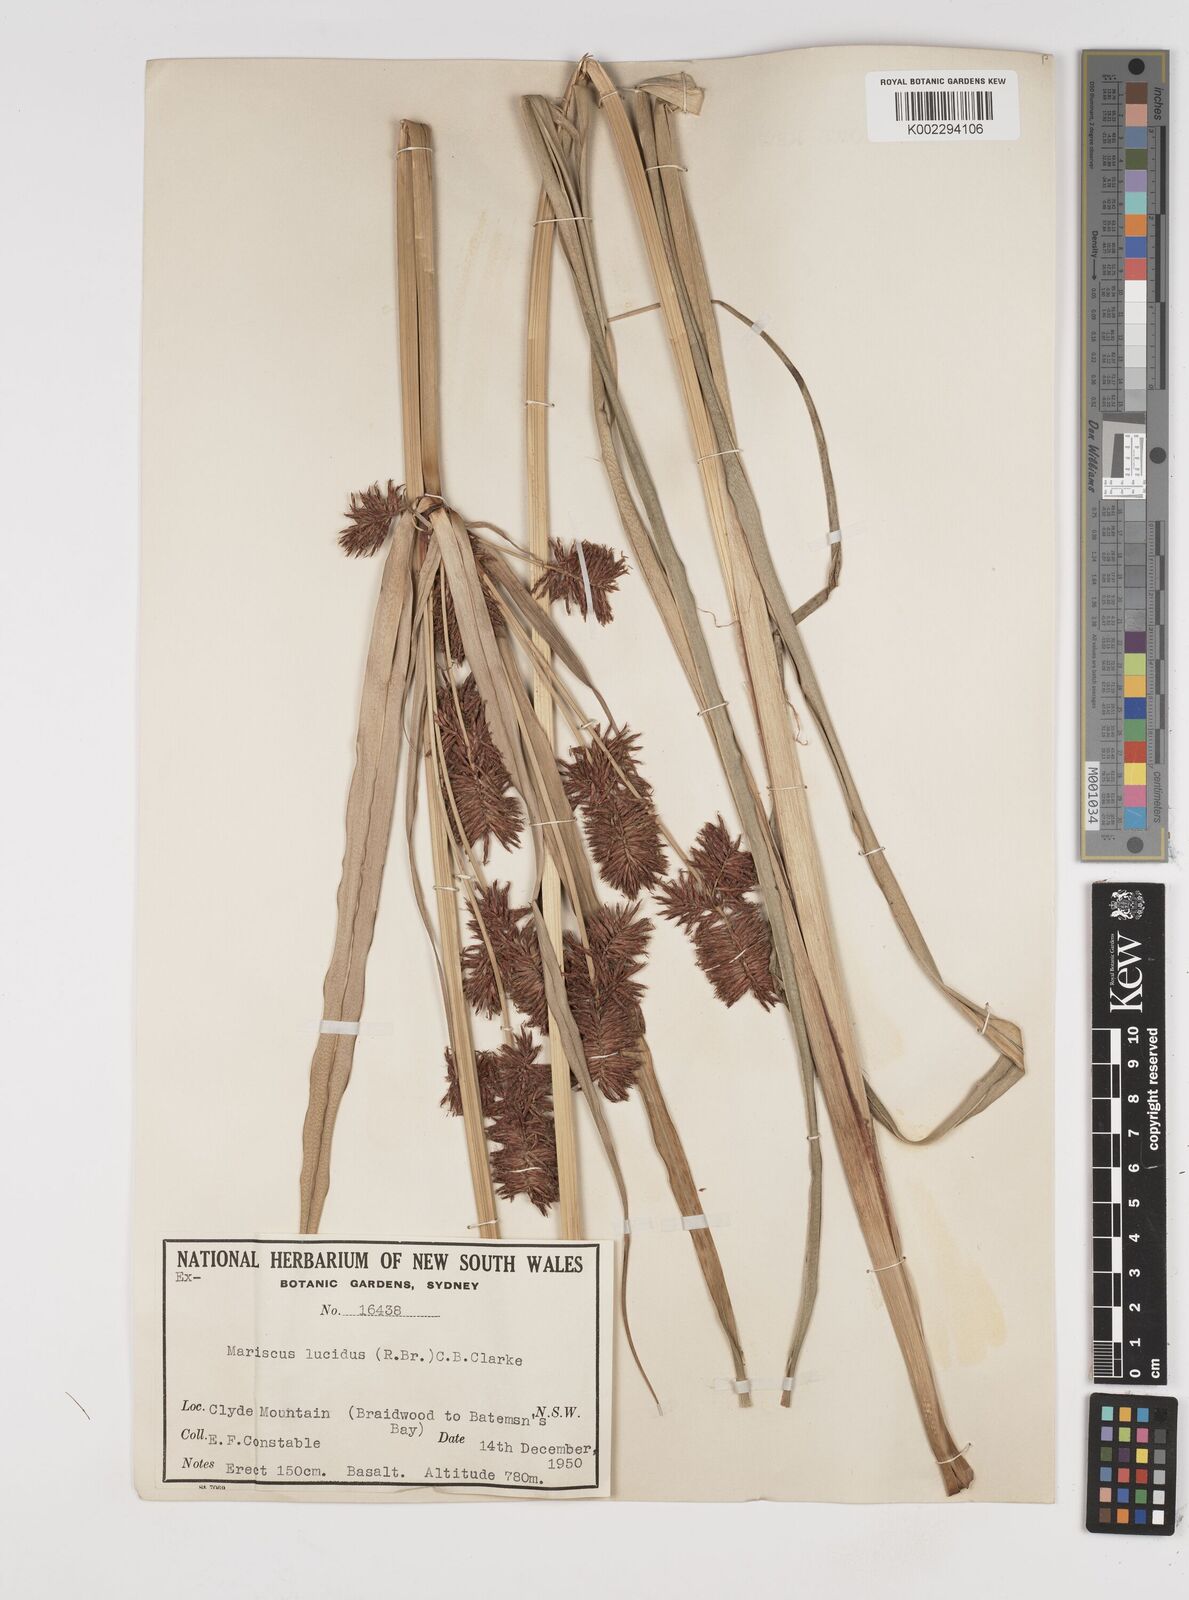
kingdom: Plantae
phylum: Tracheophyta
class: Liliopsida
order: Poales
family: Cyperaceae
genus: Cyperus
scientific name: Cyperus lucidus
